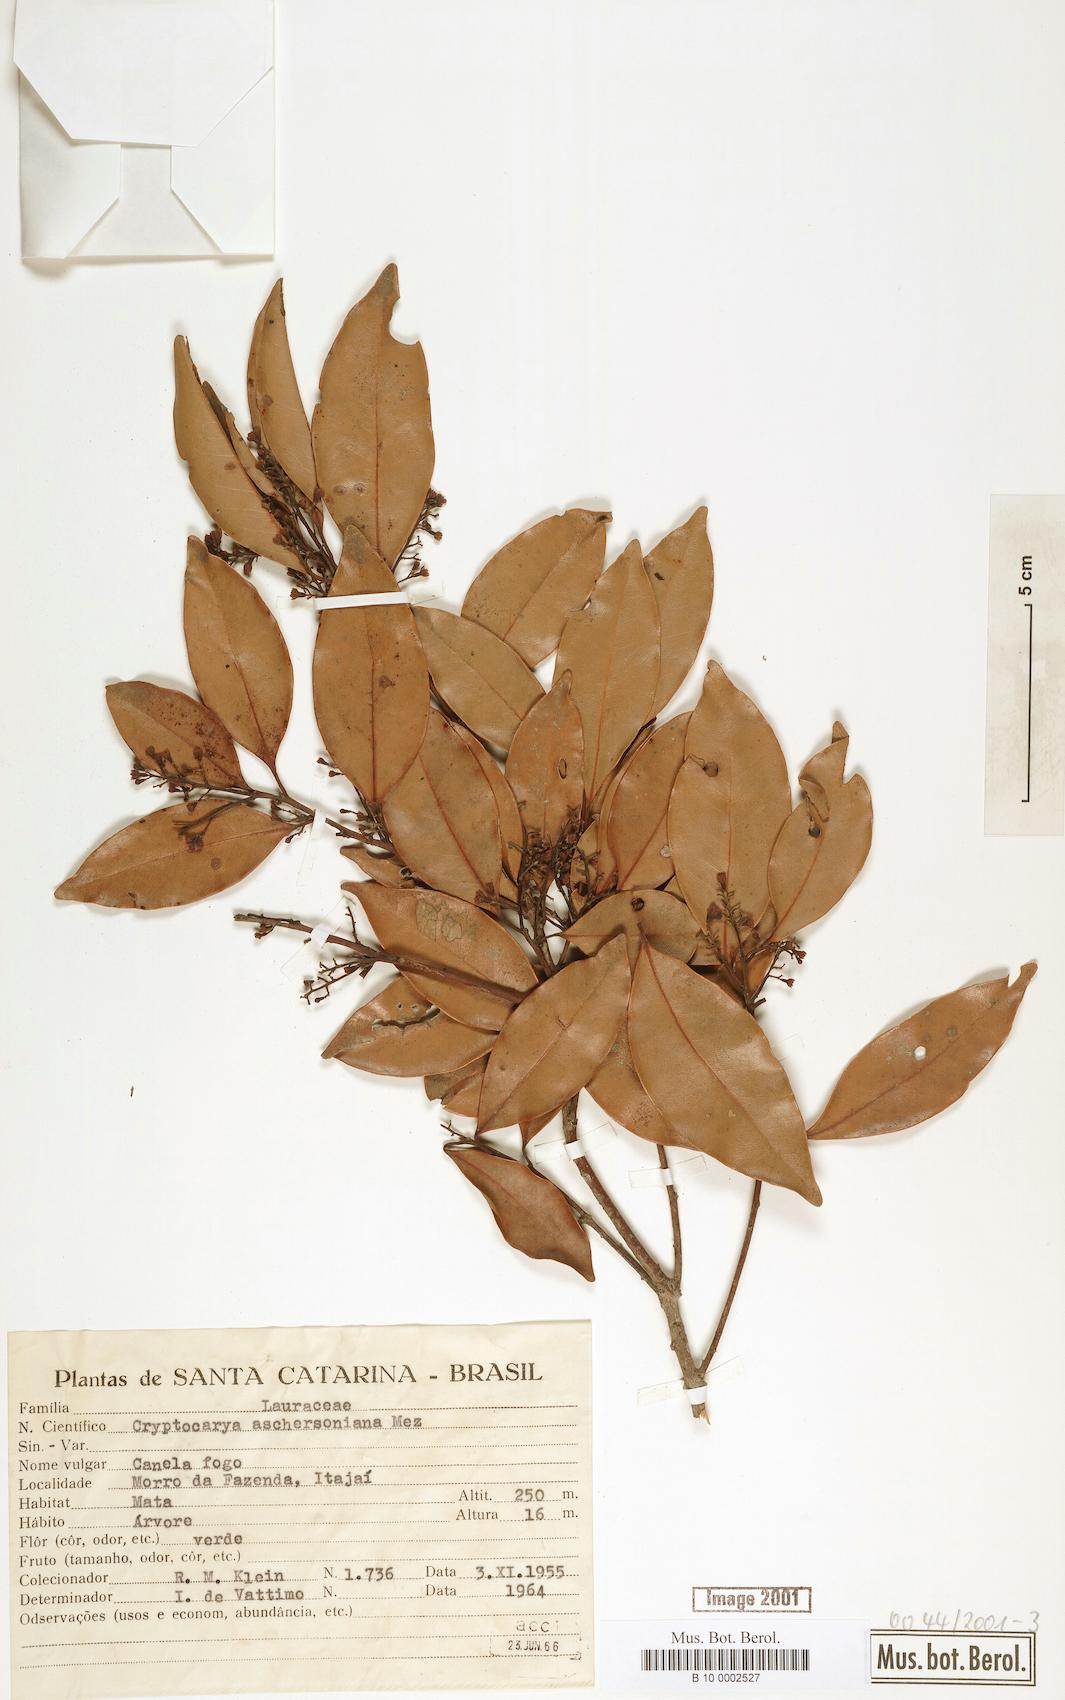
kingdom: Plantae
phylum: Tracheophyta
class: Magnoliopsida
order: Laurales
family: Lauraceae
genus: Cryptocarya
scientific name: Cryptocarya aschersoniana
